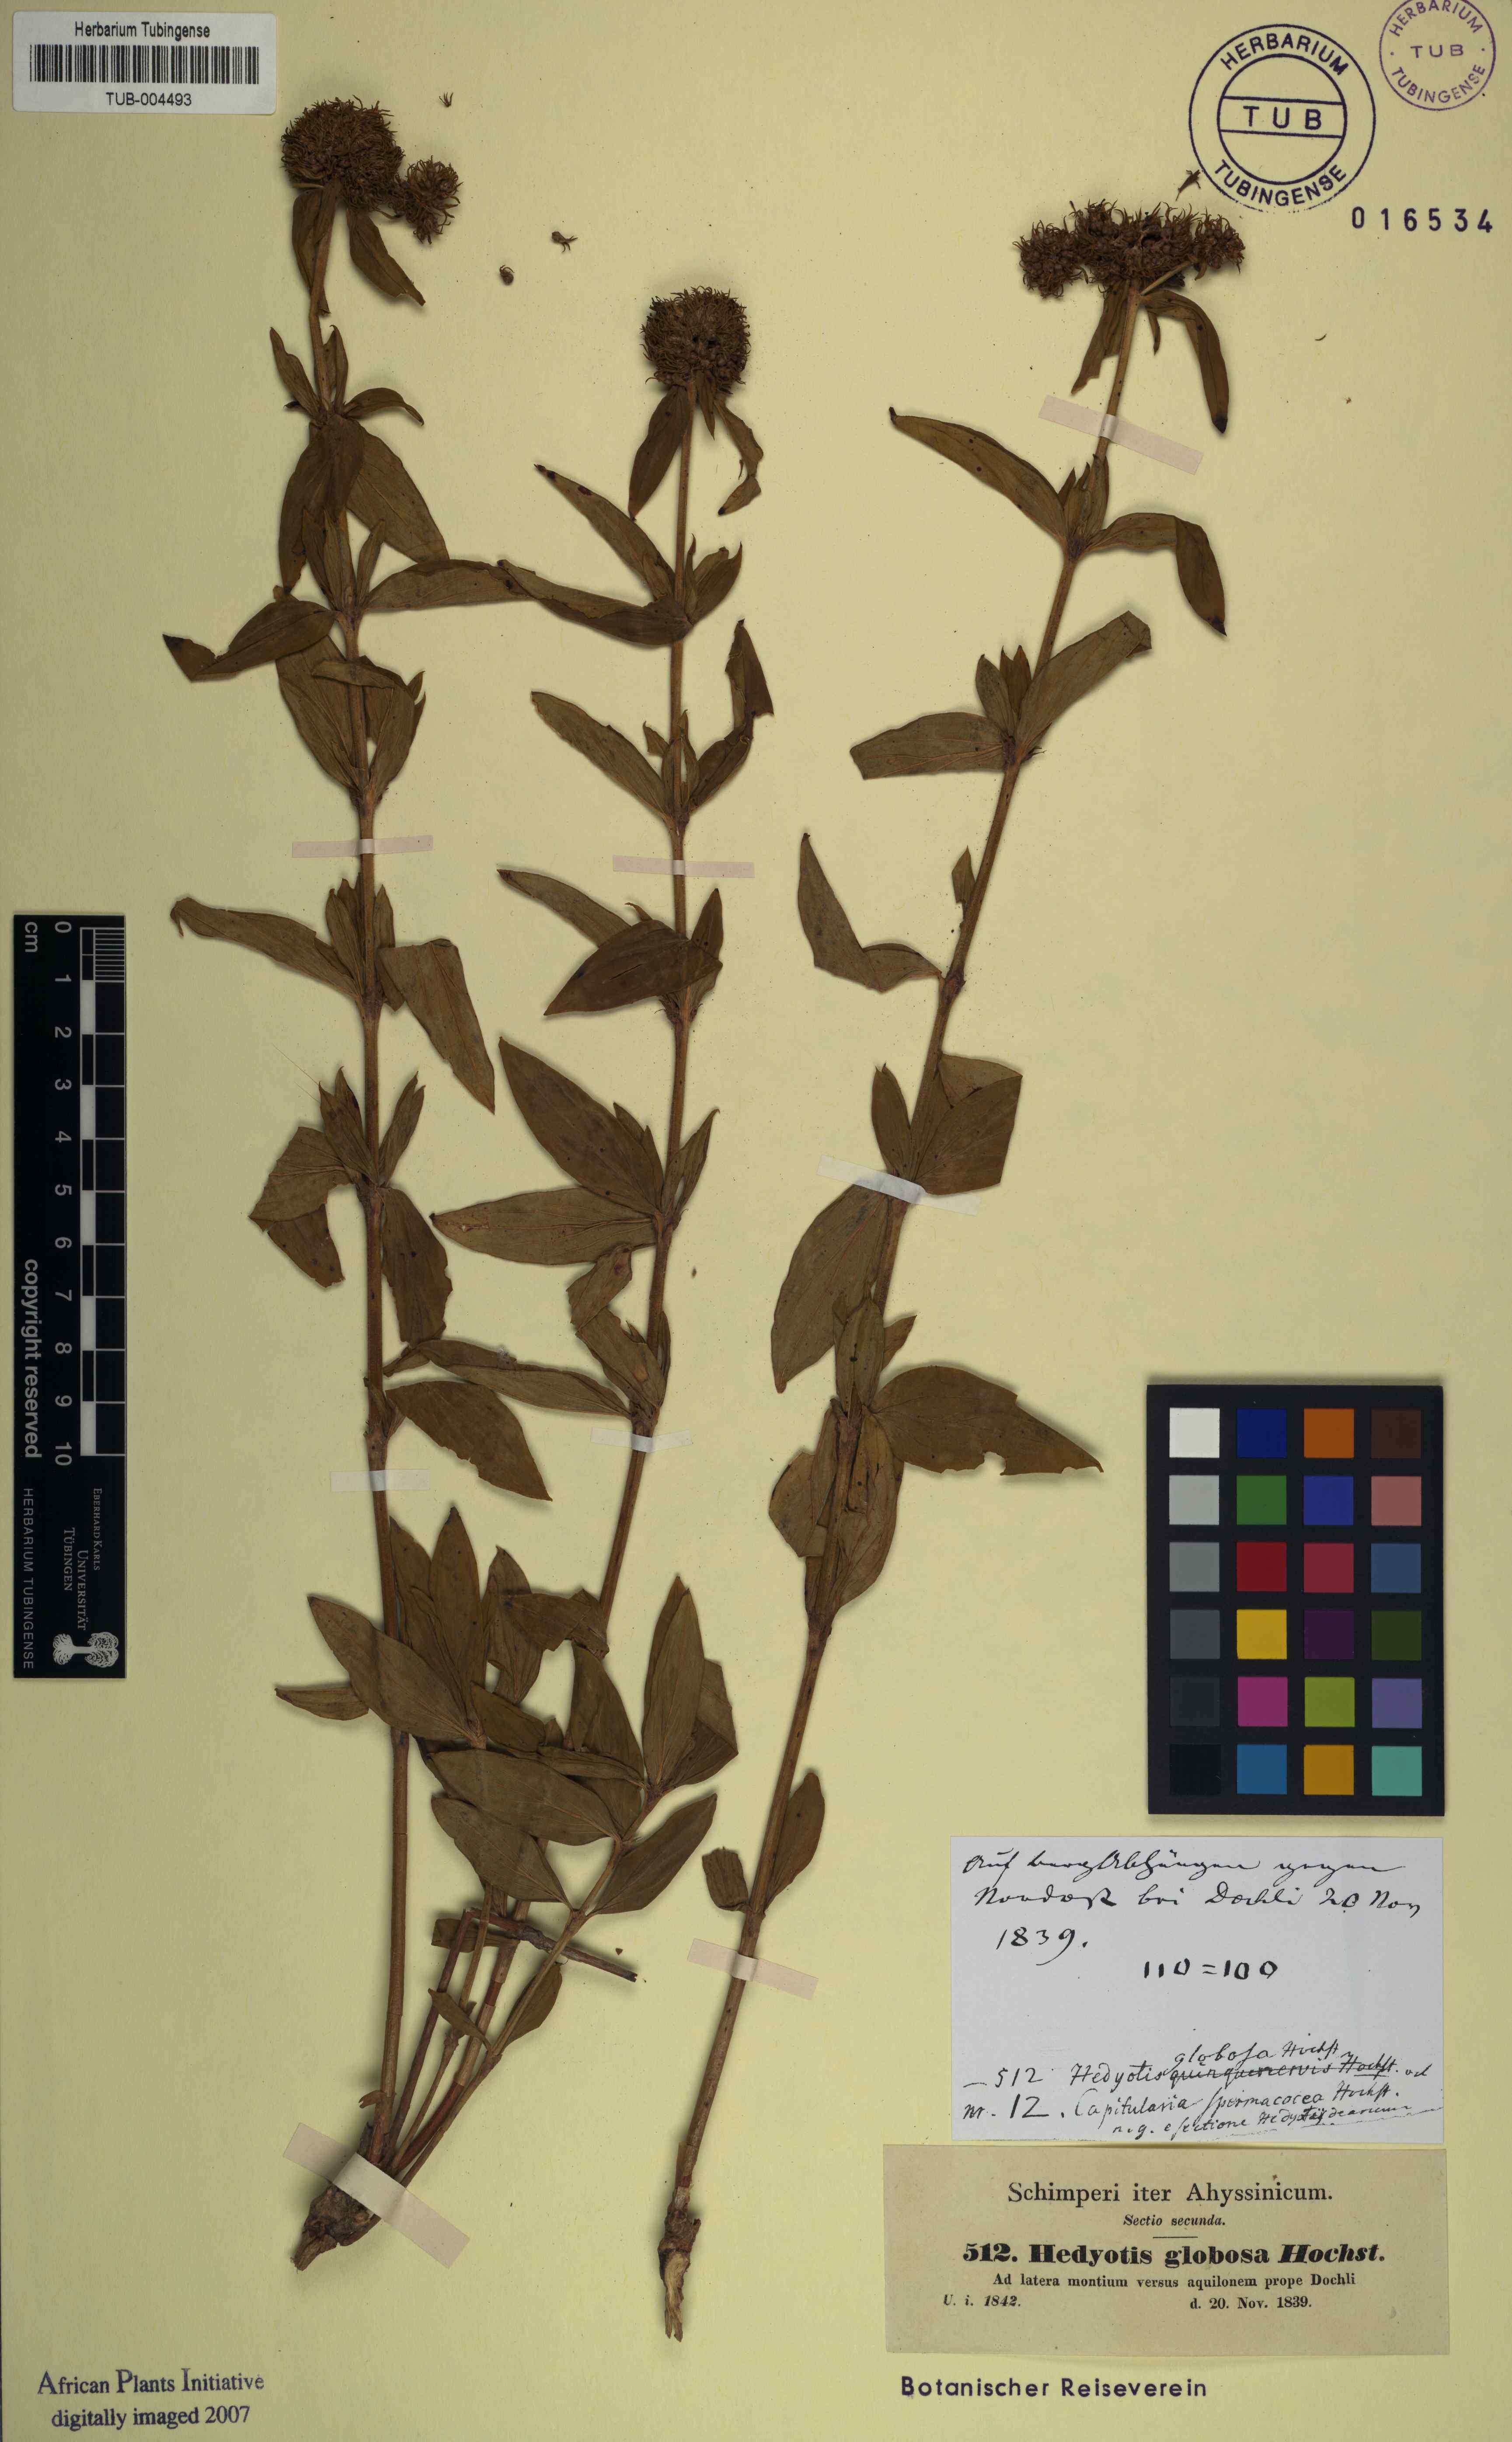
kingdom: Plantae
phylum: Tracheophyta
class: Magnoliopsida
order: Gentianales
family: Rubiaceae
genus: Agathisanthemum
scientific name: Agathisanthemum globosum
